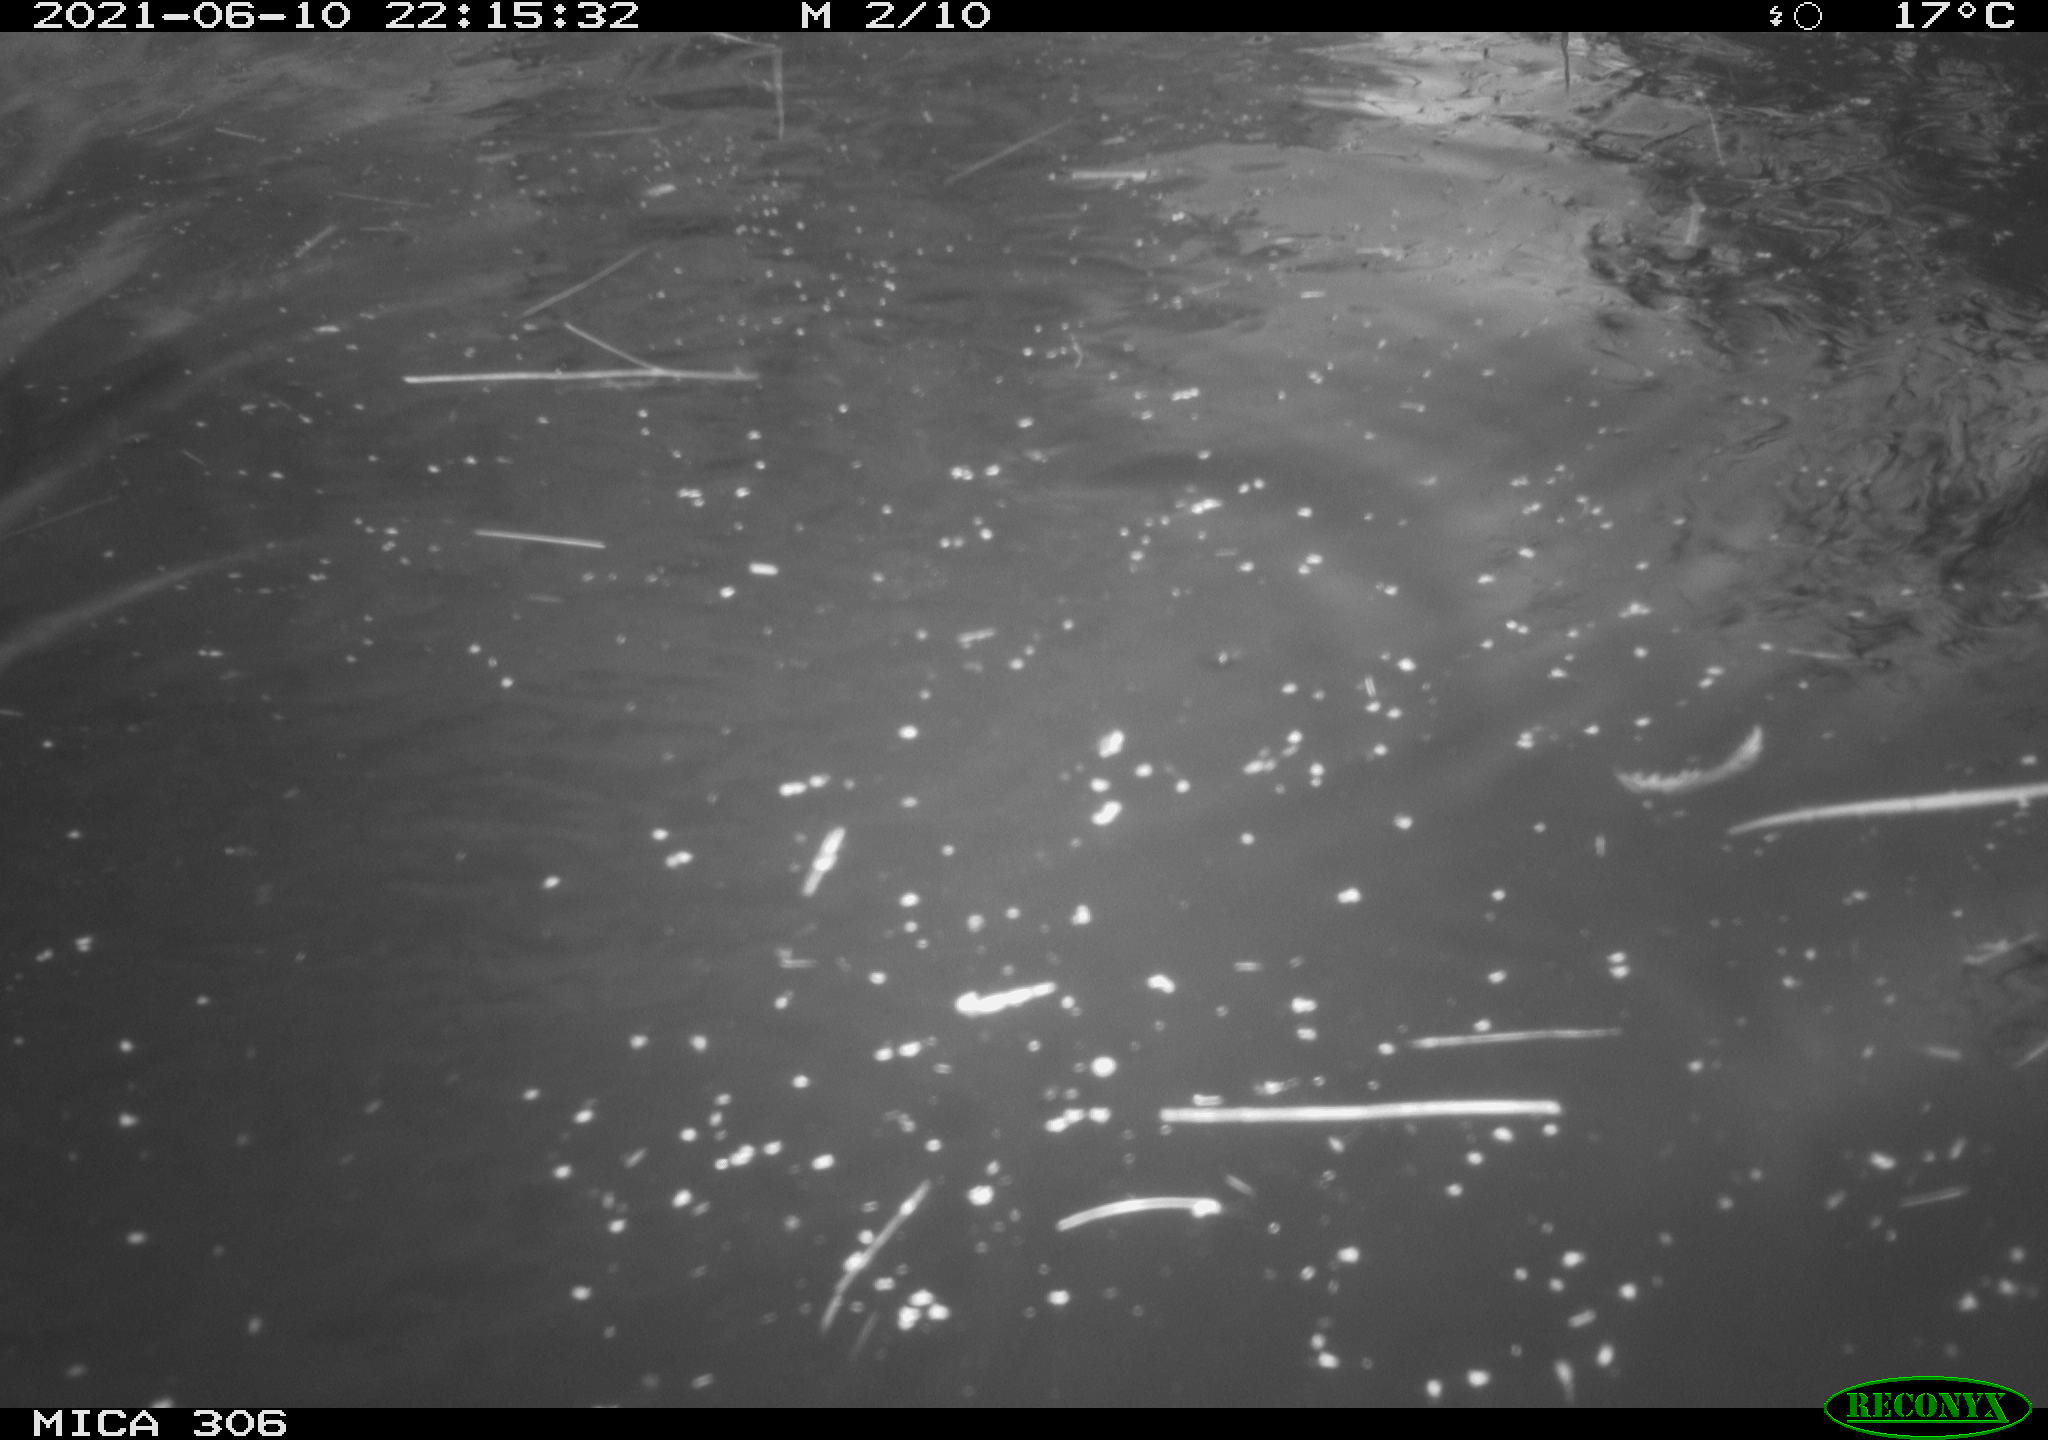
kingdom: Animalia
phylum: Chordata
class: Mammalia
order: Rodentia
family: Cricetidae
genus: Ondatra
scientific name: Ondatra zibethicus
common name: Muskrat
